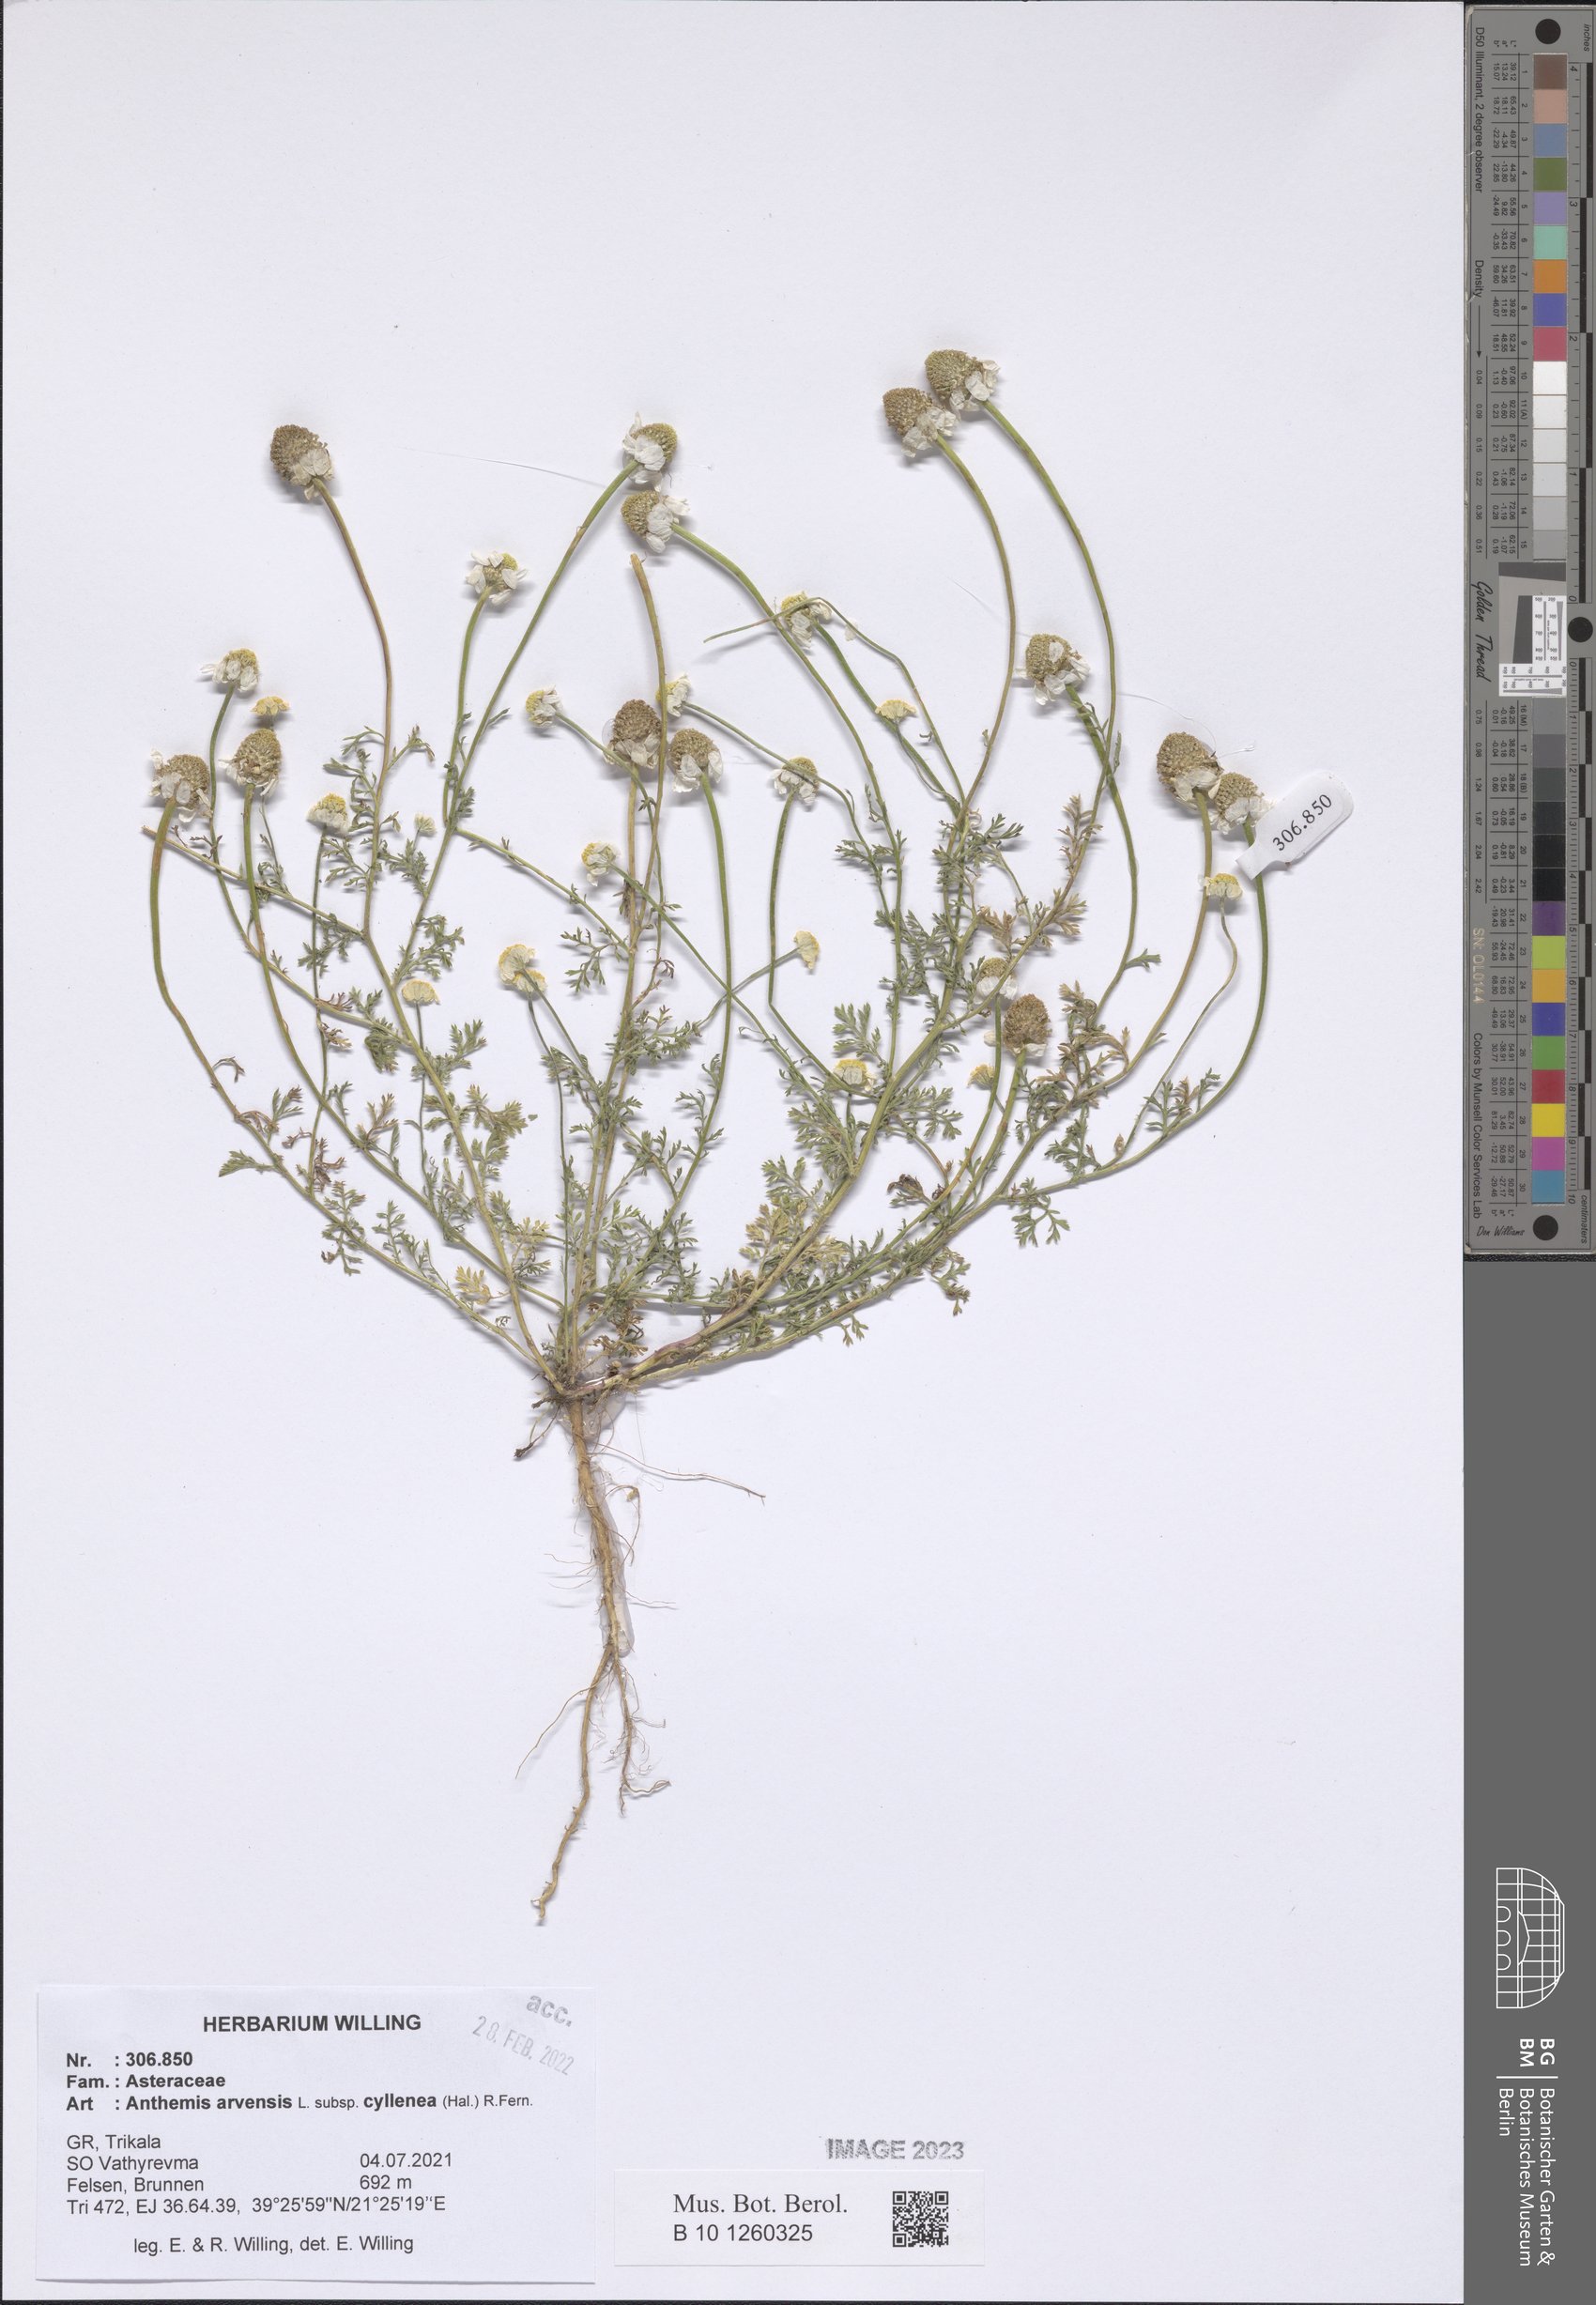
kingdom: Plantae
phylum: Tracheophyta
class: Magnoliopsida
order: Asterales
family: Asteraceae
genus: Anthemis
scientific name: Anthemis arvensis
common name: Corn chamomile
